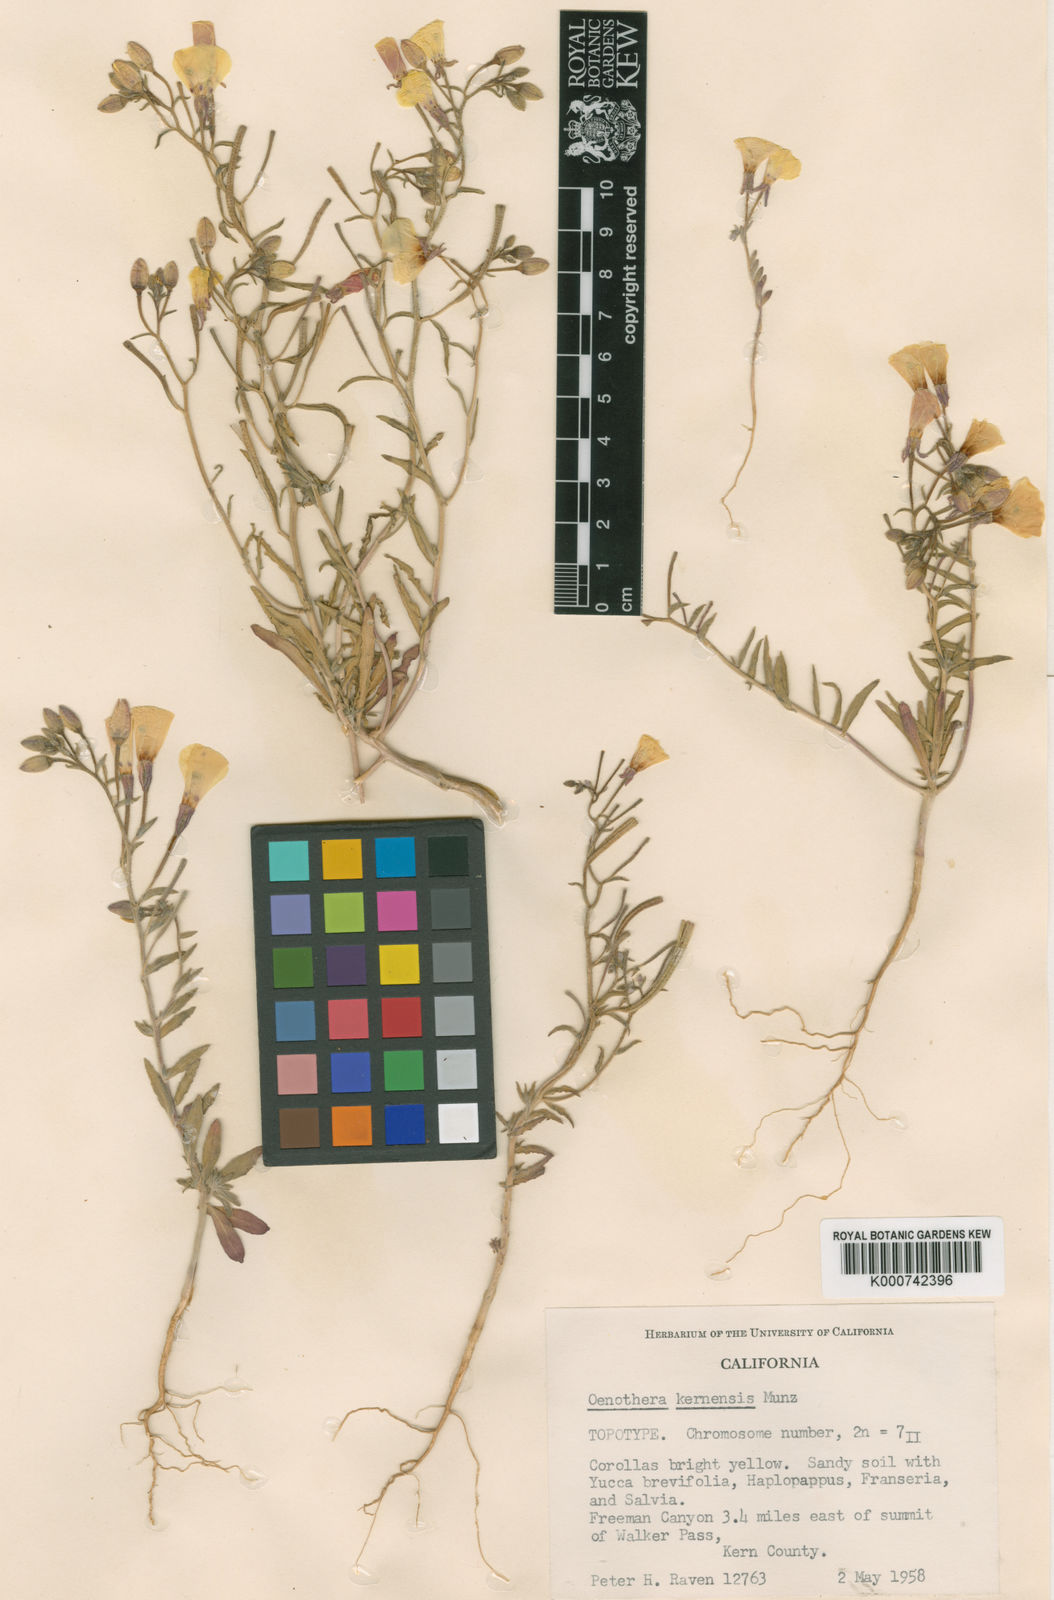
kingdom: Plantae
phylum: Tracheophyta
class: Magnoliopsida
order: Myrtales
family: Onagraceae
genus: Camissonia
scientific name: Camissonia kernensis
